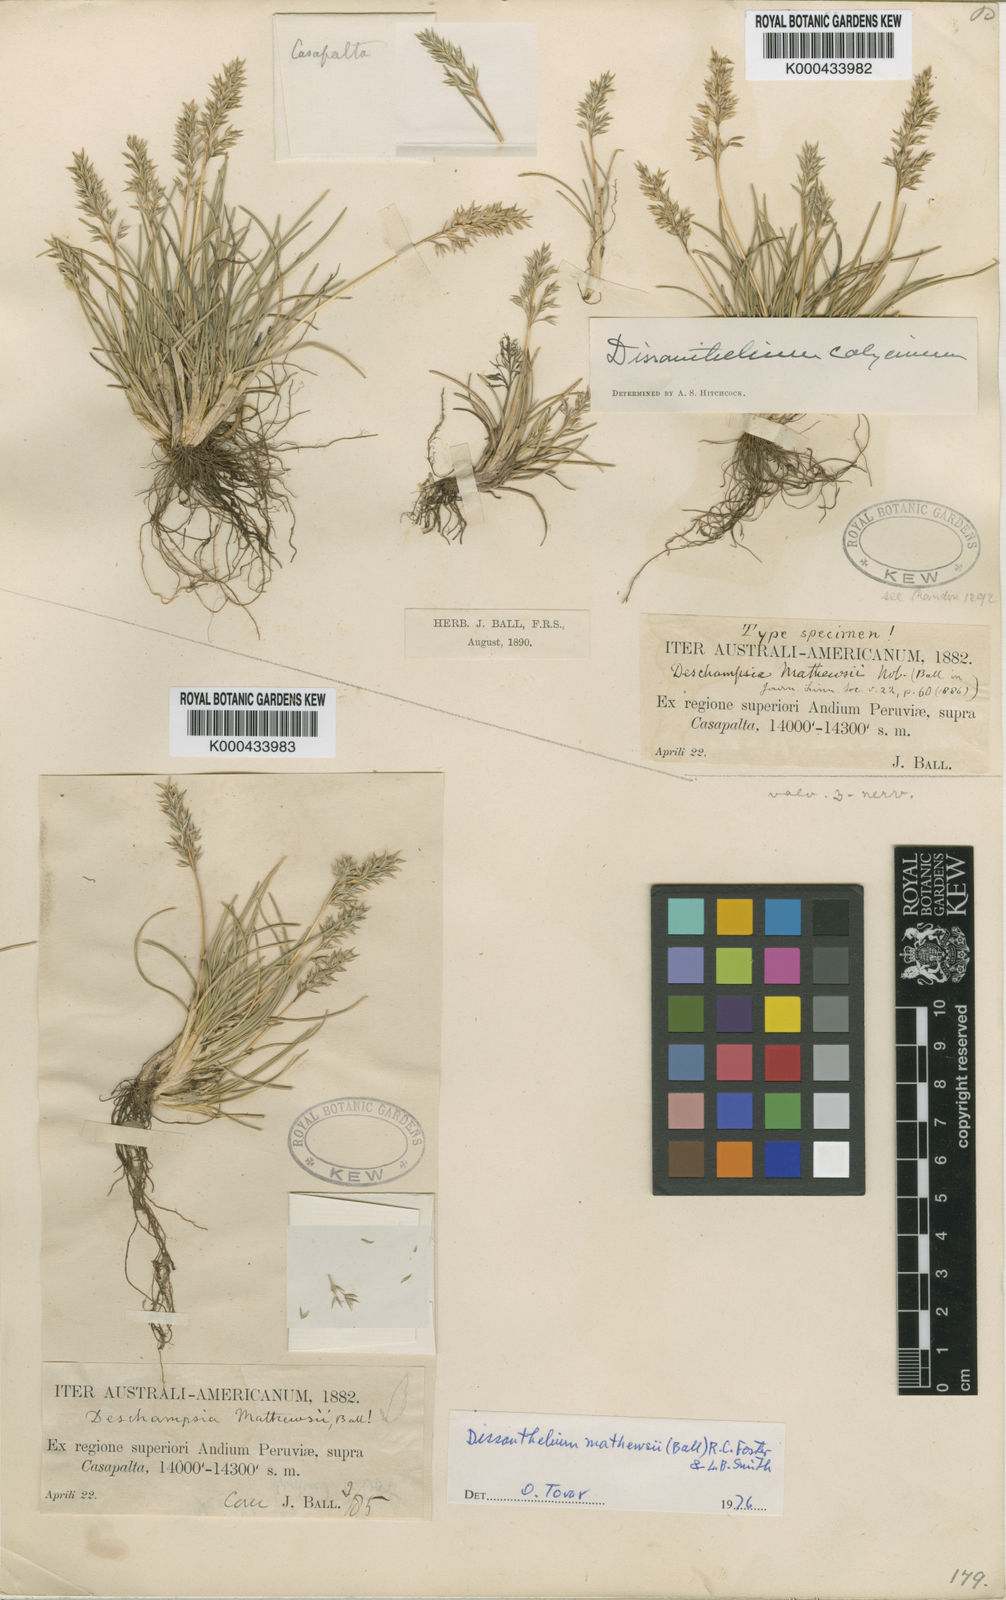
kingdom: Plantae
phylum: Tracheophyta
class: Liliopsida
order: Poales
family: Poaceae
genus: Poa
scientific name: Poa calycina
